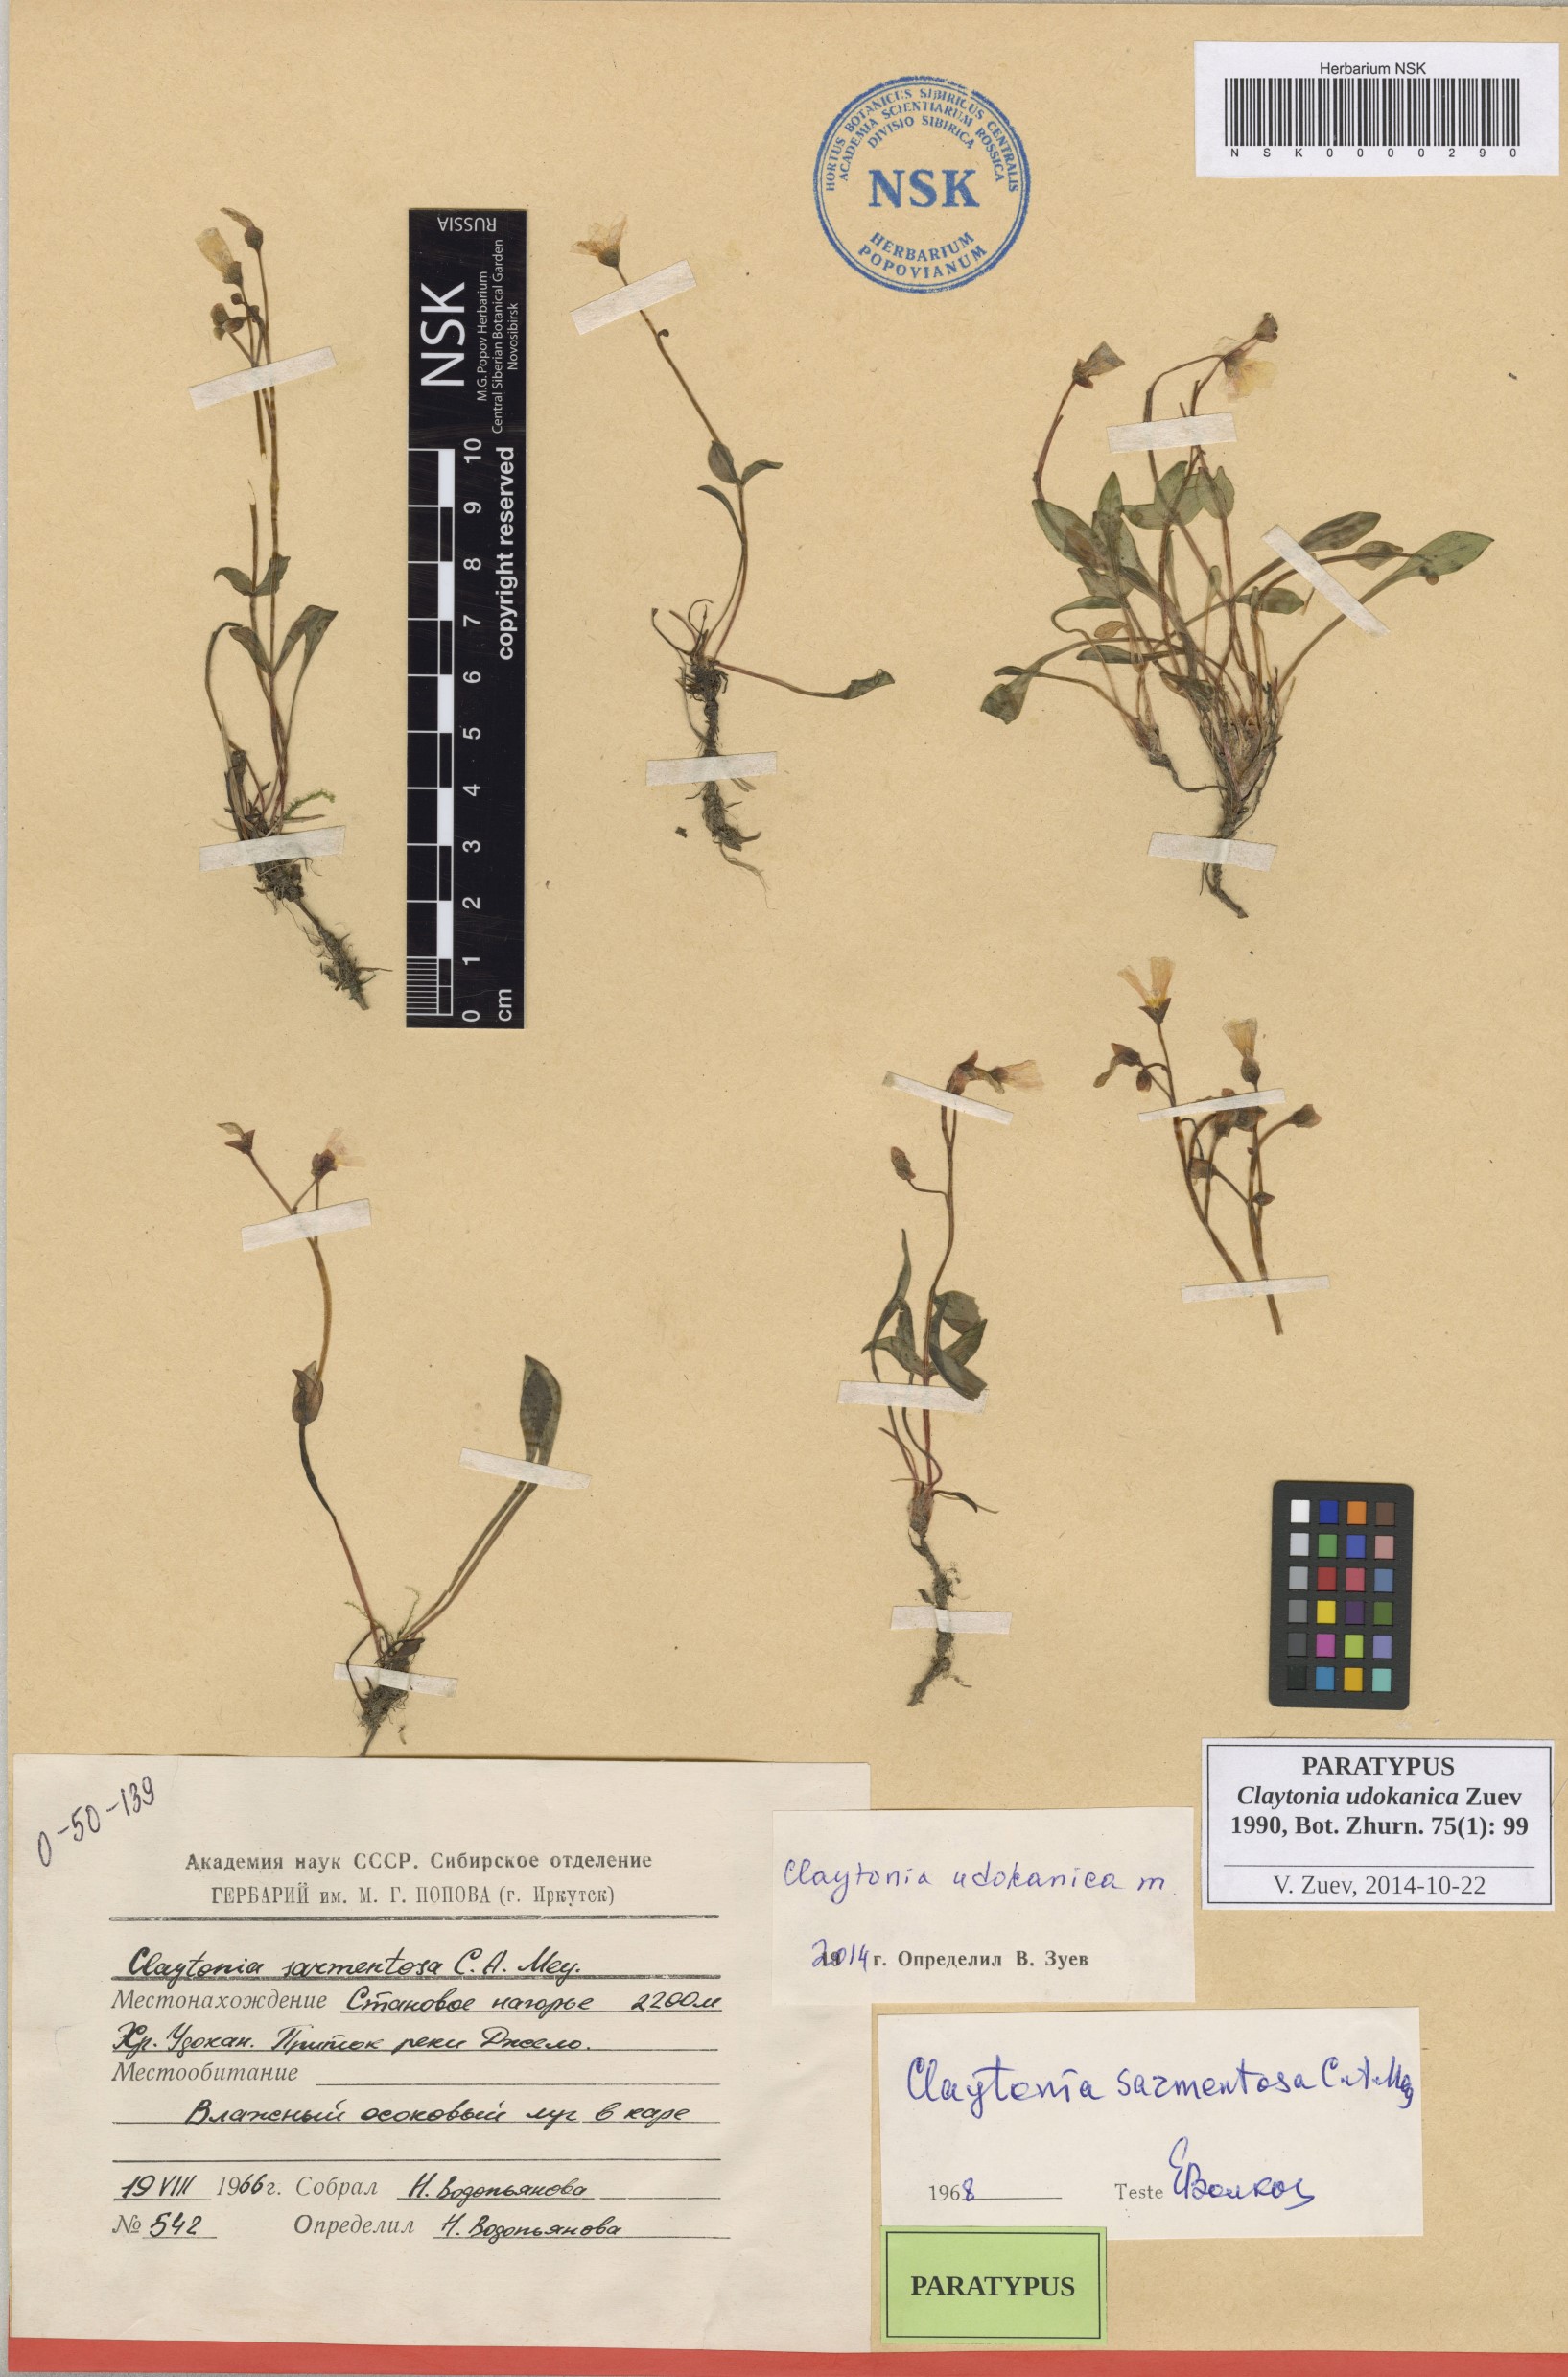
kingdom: Plantae
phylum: Tracheophyta
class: Magnoliopsida
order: Caryophyllales
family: Montiaceae
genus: Claytonia
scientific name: Claytonia udokanica
